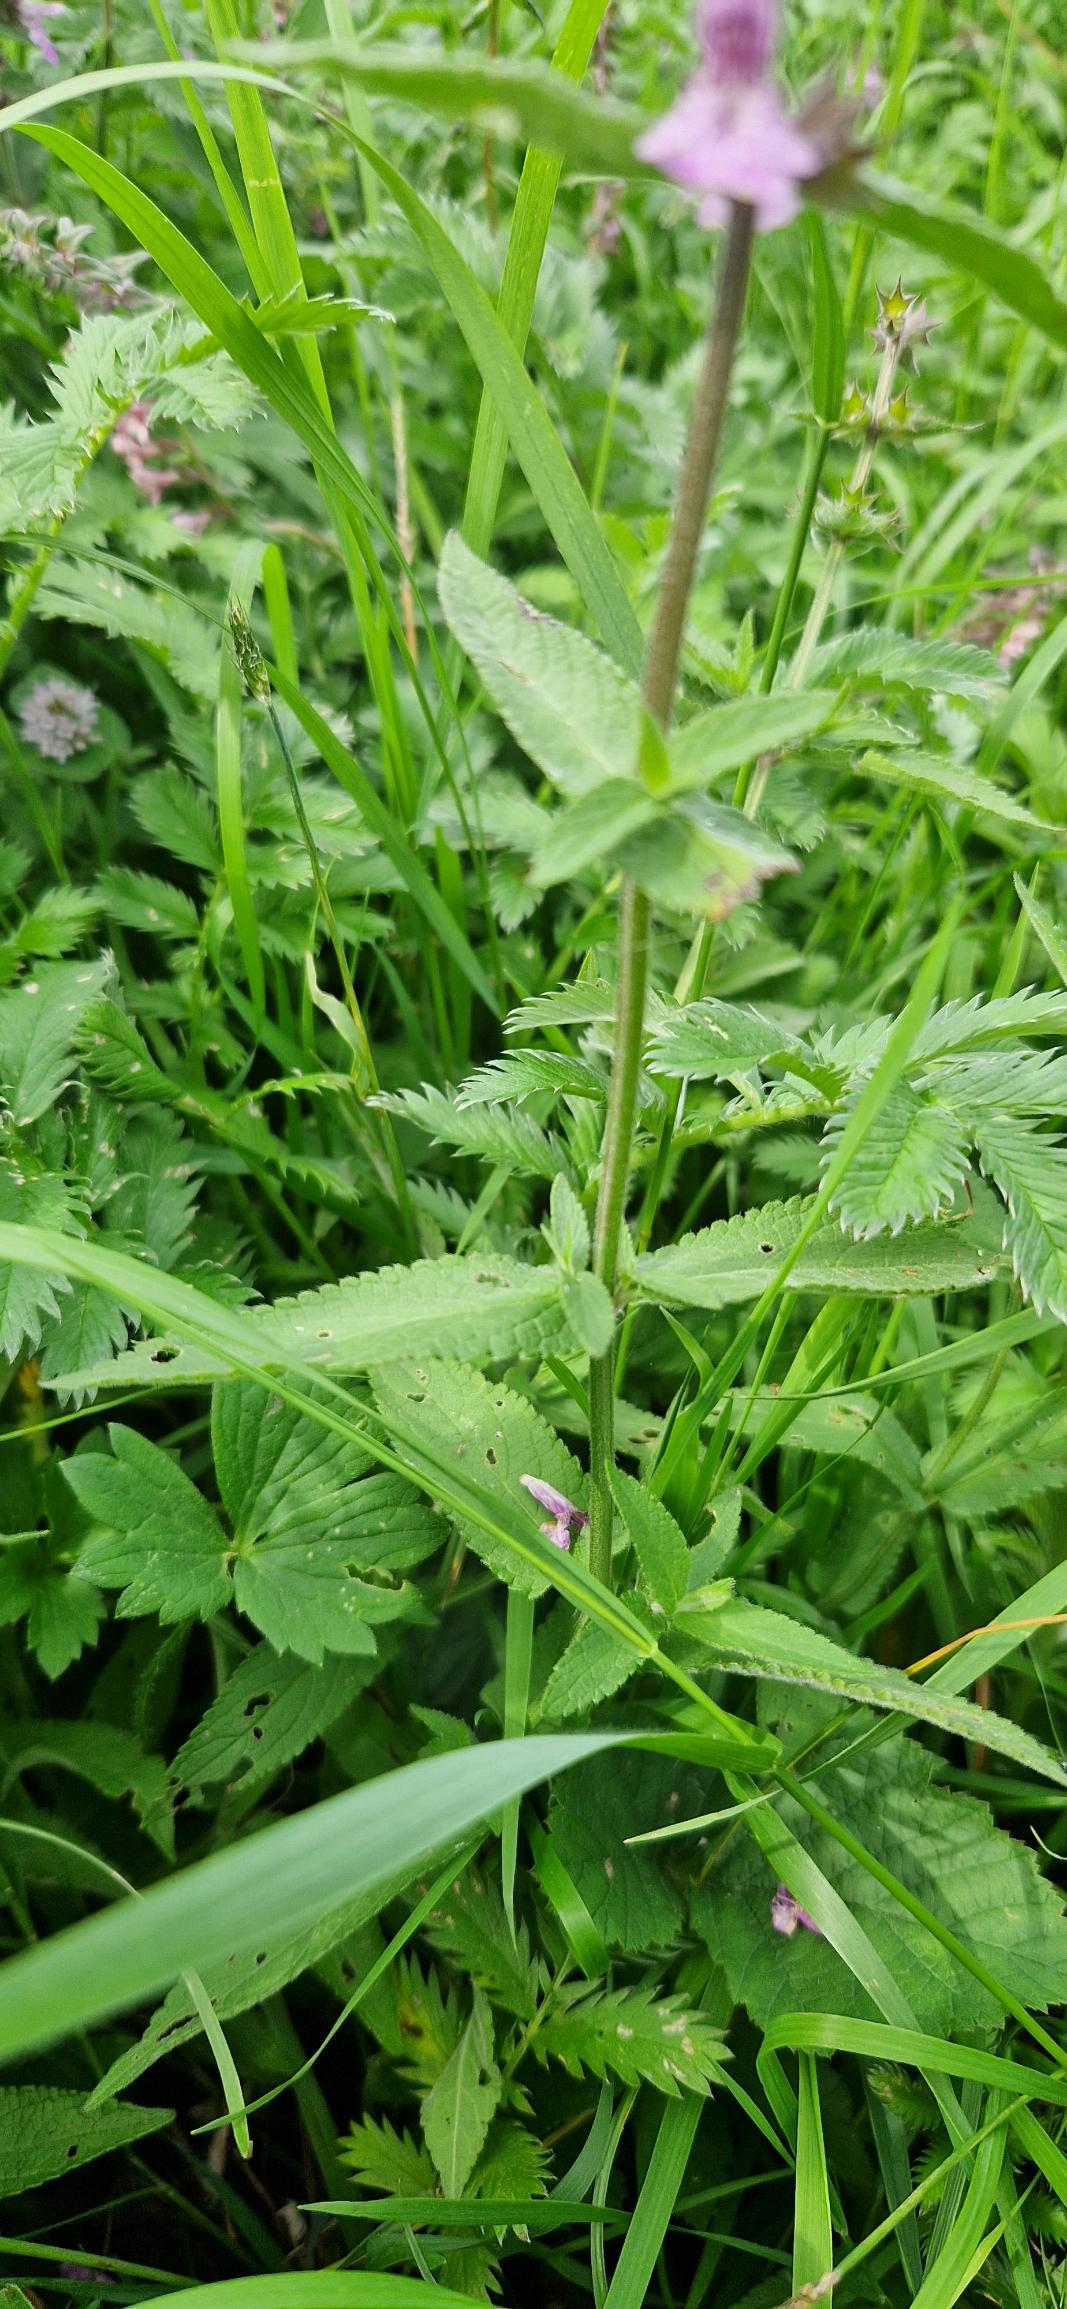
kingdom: Plantae
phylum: Tracheophyta
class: Magnoliopsida
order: Lamiales
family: Lamiaceae
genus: Stachys
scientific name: Stachys palustris
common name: Kær-galtetand
